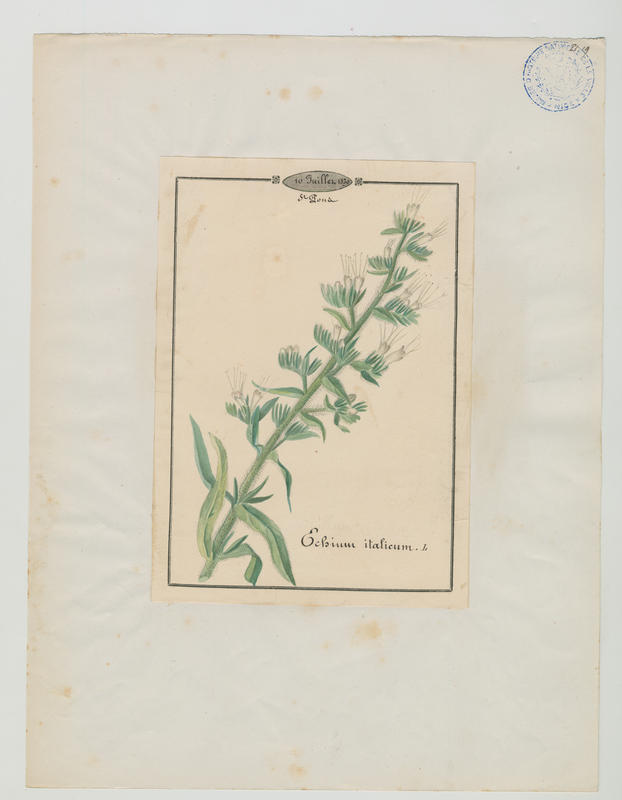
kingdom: Plantae
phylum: Tracheophyta
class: Magnoliopsida
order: Boraginales
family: Boraginaceae
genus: Echium
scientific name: Echium italicum
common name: Italian viper's bugloss
